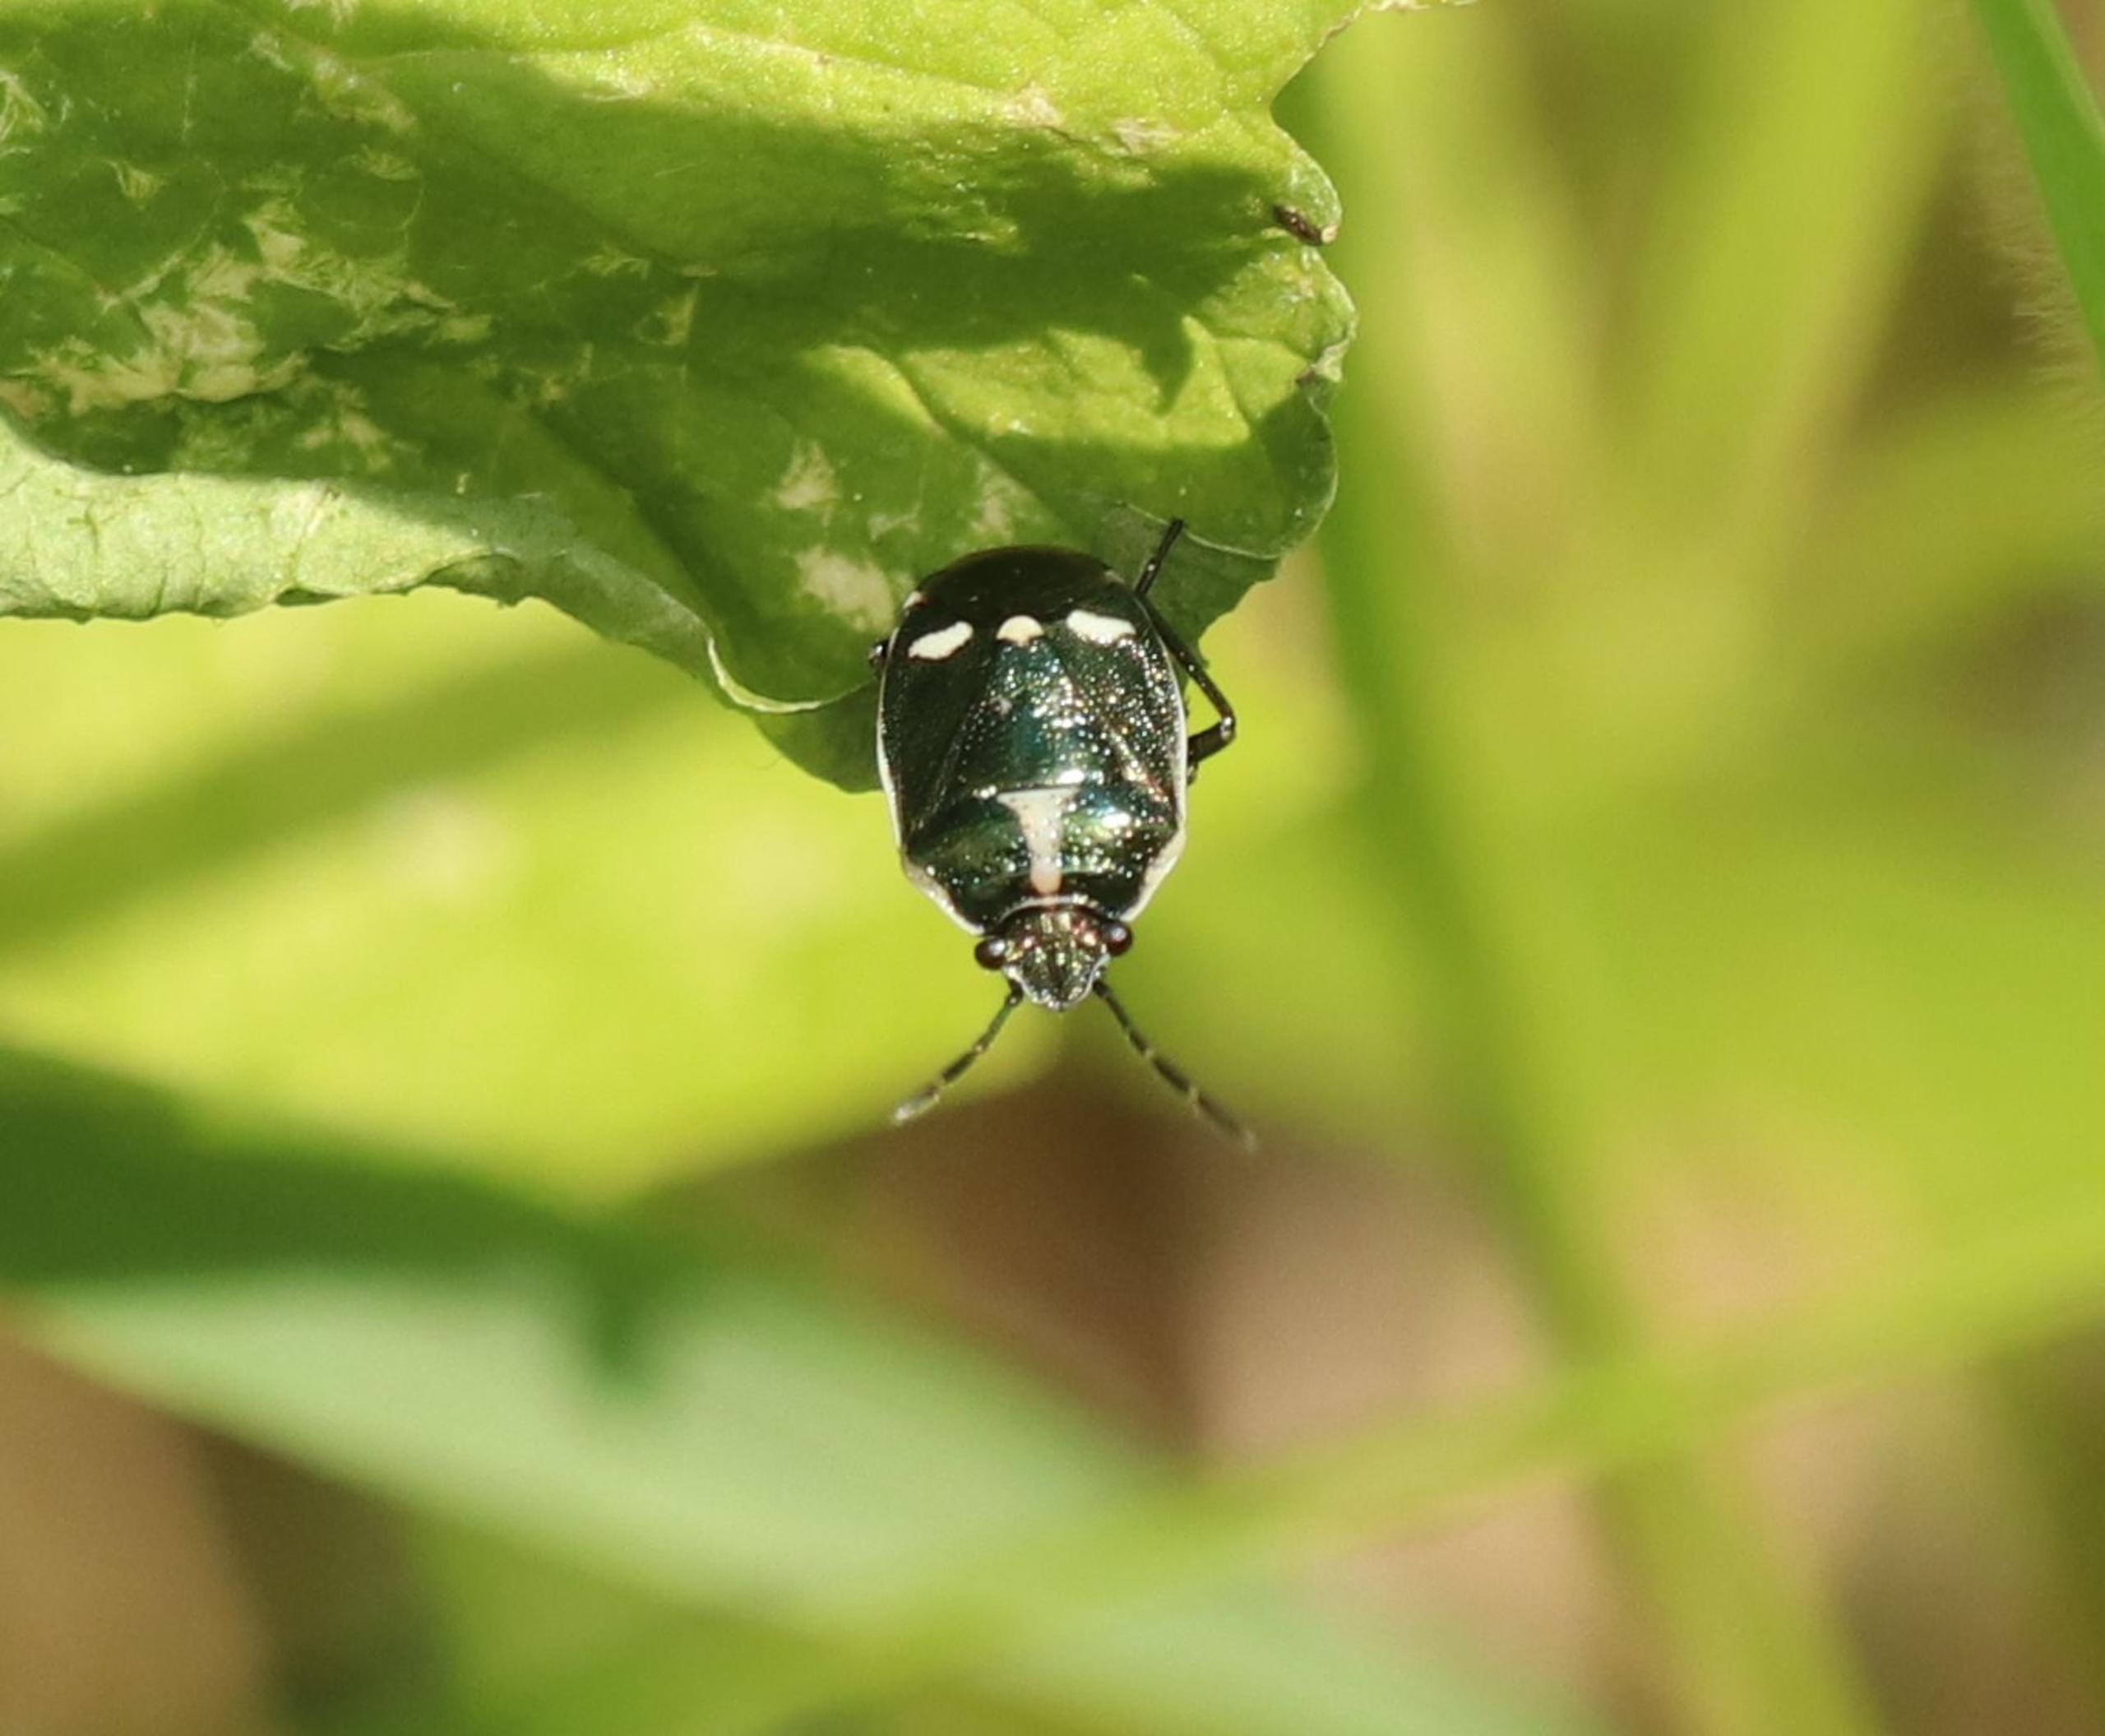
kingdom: Animalia
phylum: Arthropoda
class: Insecta
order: Hemiptera
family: Pentatomidae
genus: Eurydema
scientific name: Eurydema oleracea
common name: Almindelig kåltæge
